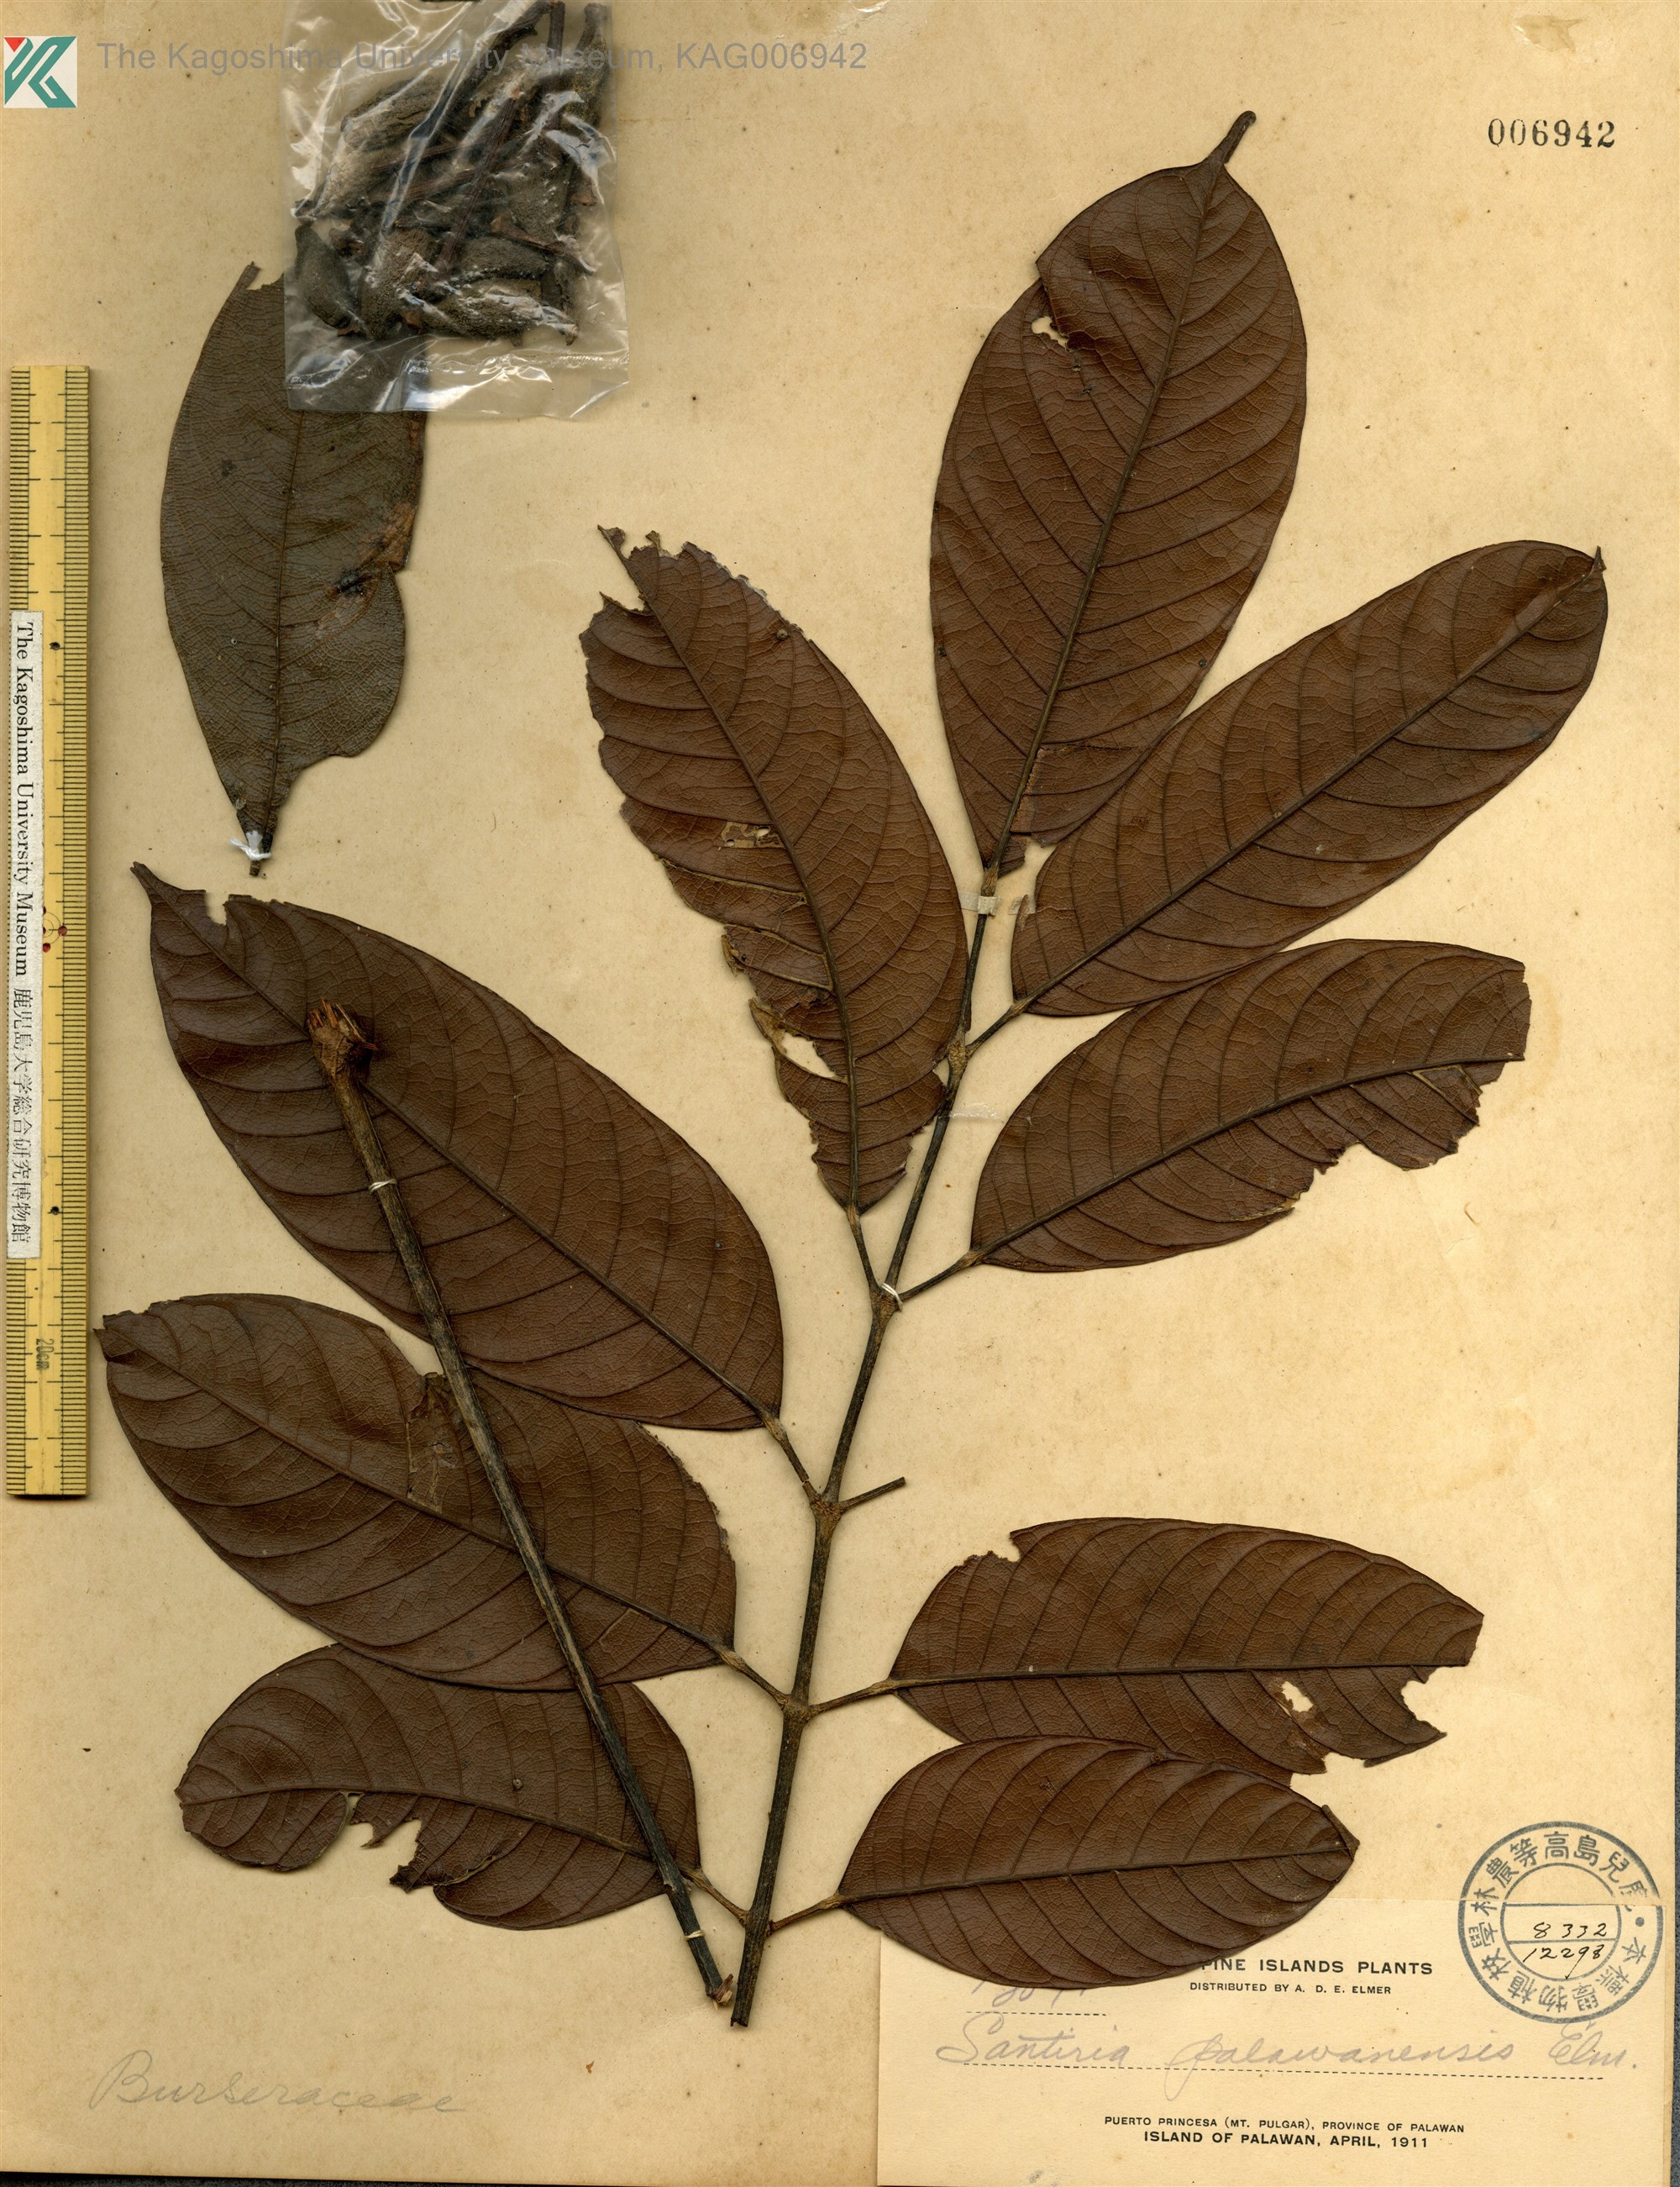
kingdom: Plantae
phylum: Tracheophyta
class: Magnoliopsida
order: Sapindales
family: Burseraceae
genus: Dacryodes
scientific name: Dacryodes rostrata
